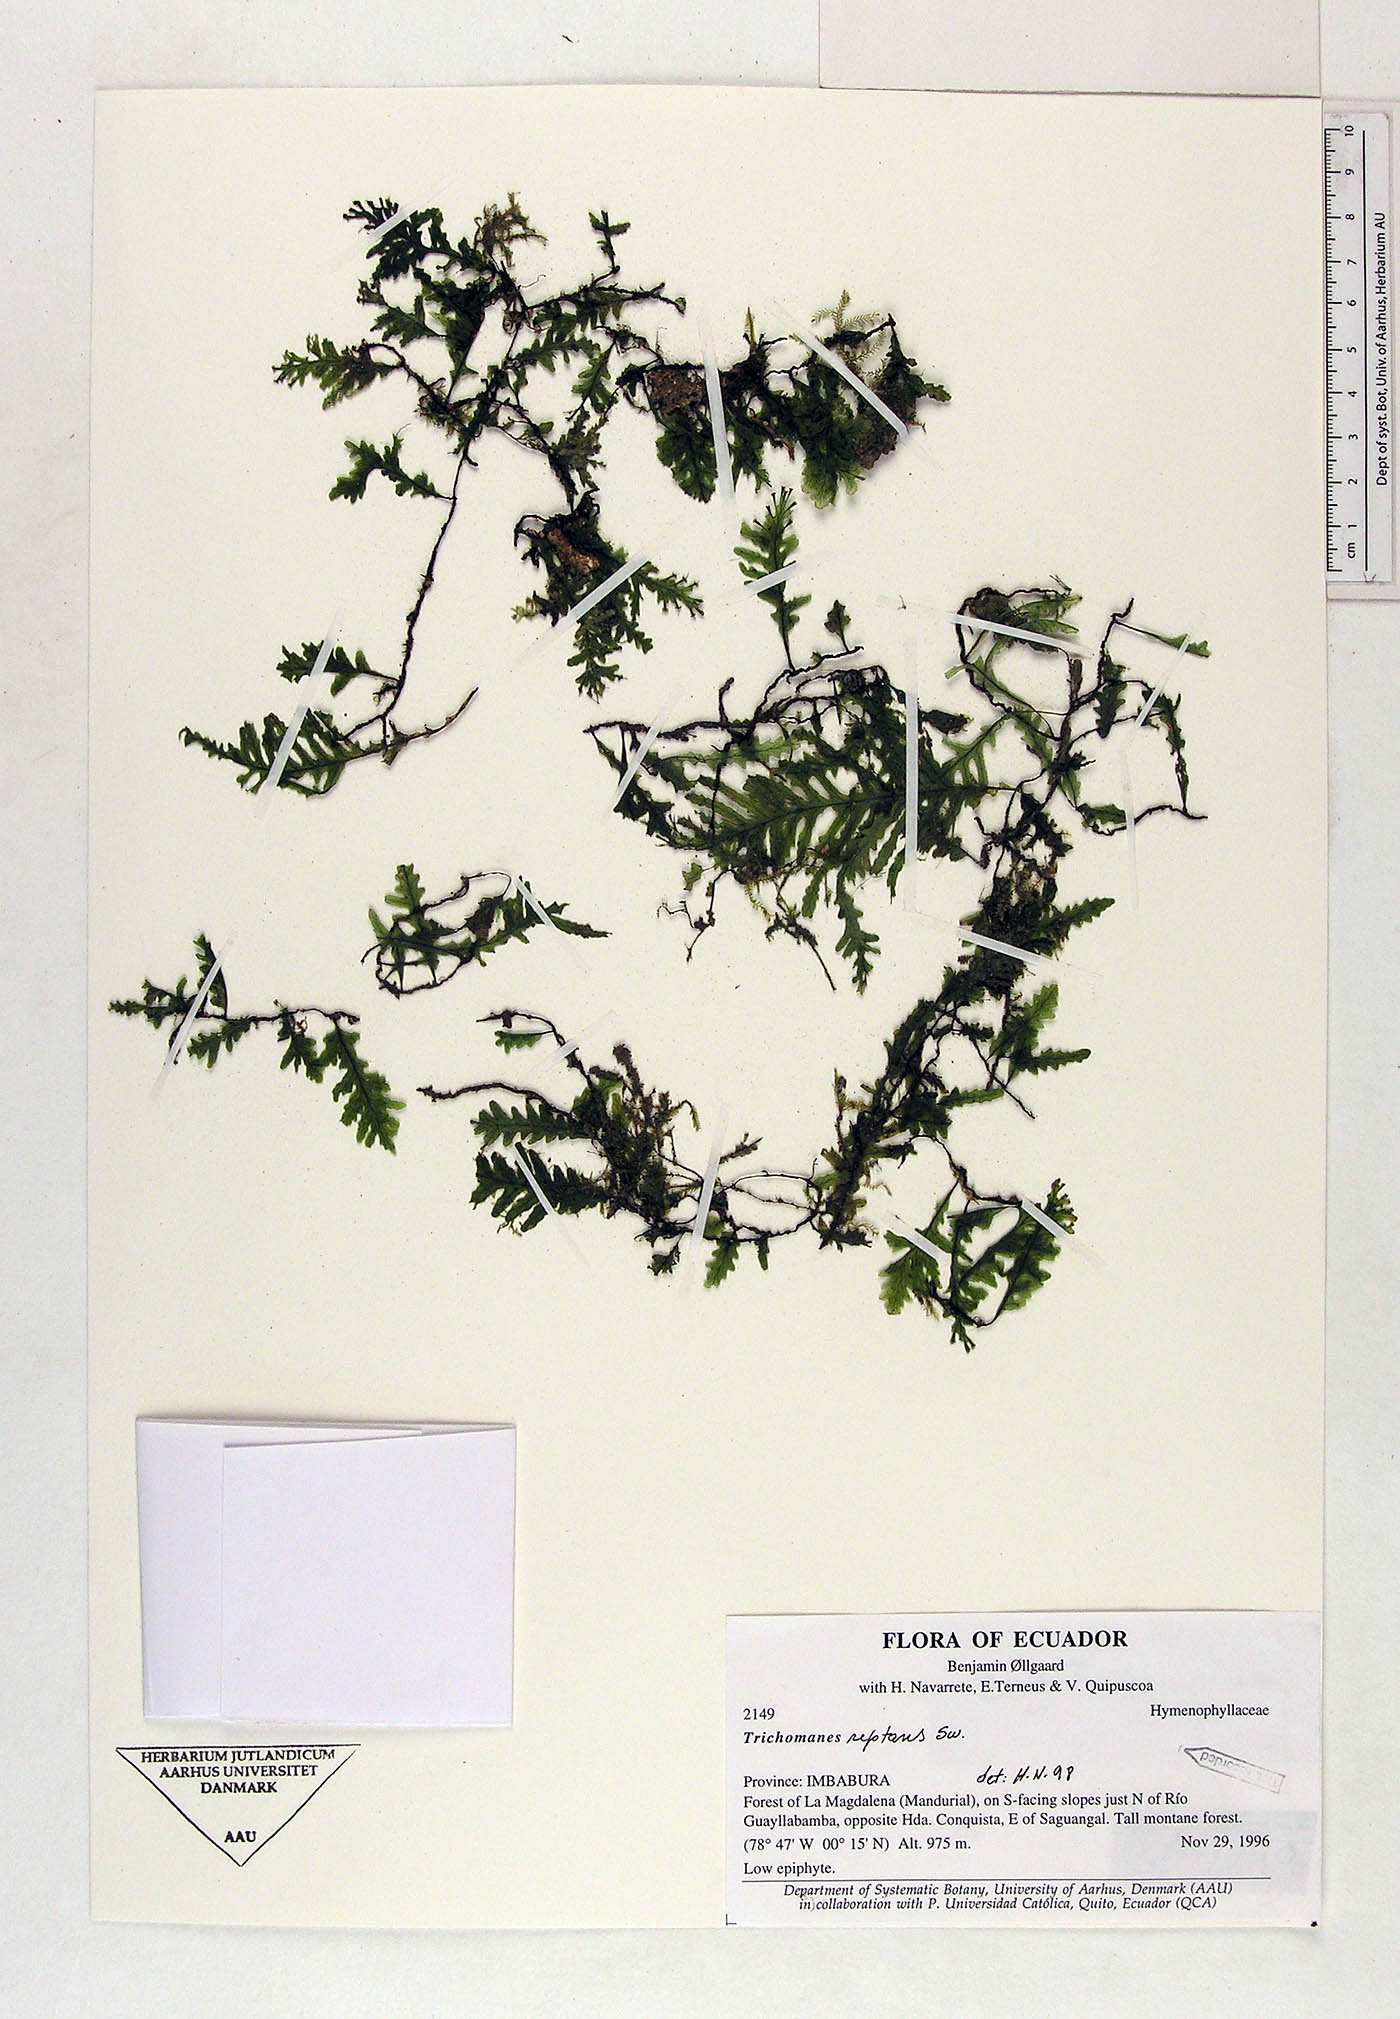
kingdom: Plantae
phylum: Tracheophyta
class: Polypodiopsida
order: Hymenophyllales
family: Hymenophyllaceae
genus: Didymoglossum
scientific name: Didymoglossum reptans
